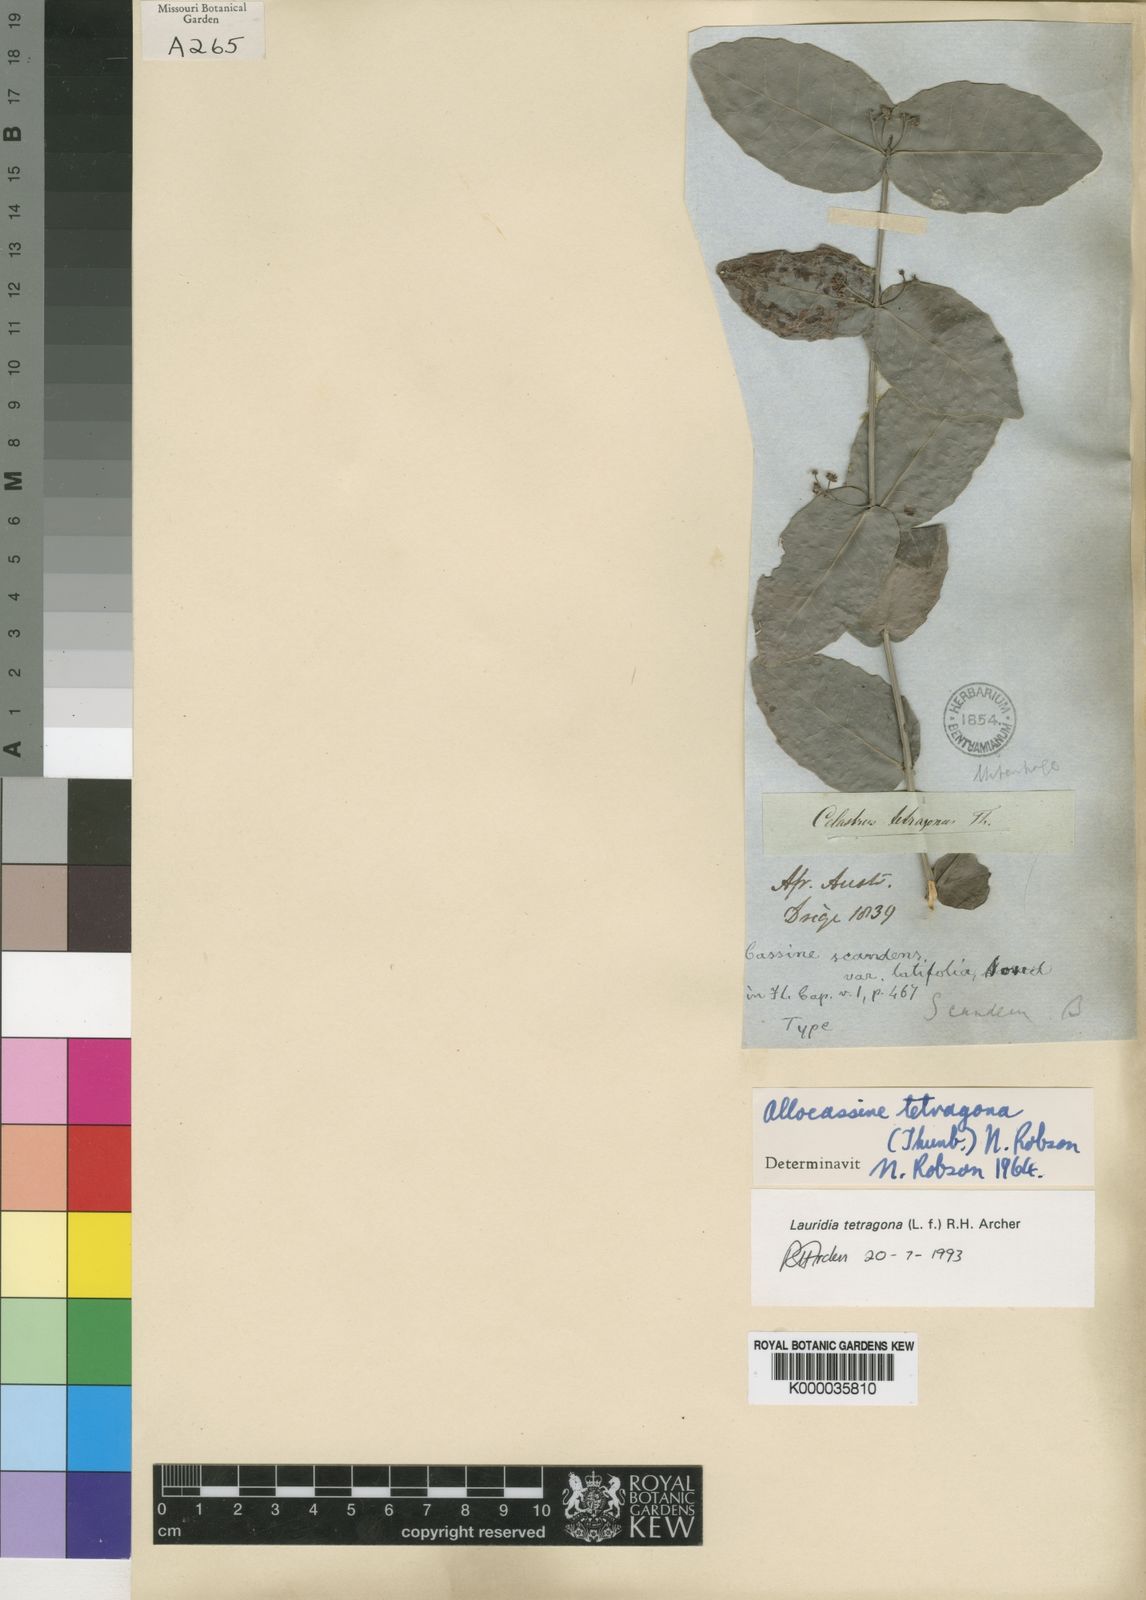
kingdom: Plantae
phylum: Tracheophyta
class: Magnoliopsida
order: Celastrales
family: Celastraceae
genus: Lauridia
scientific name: Lauridia tetragona
